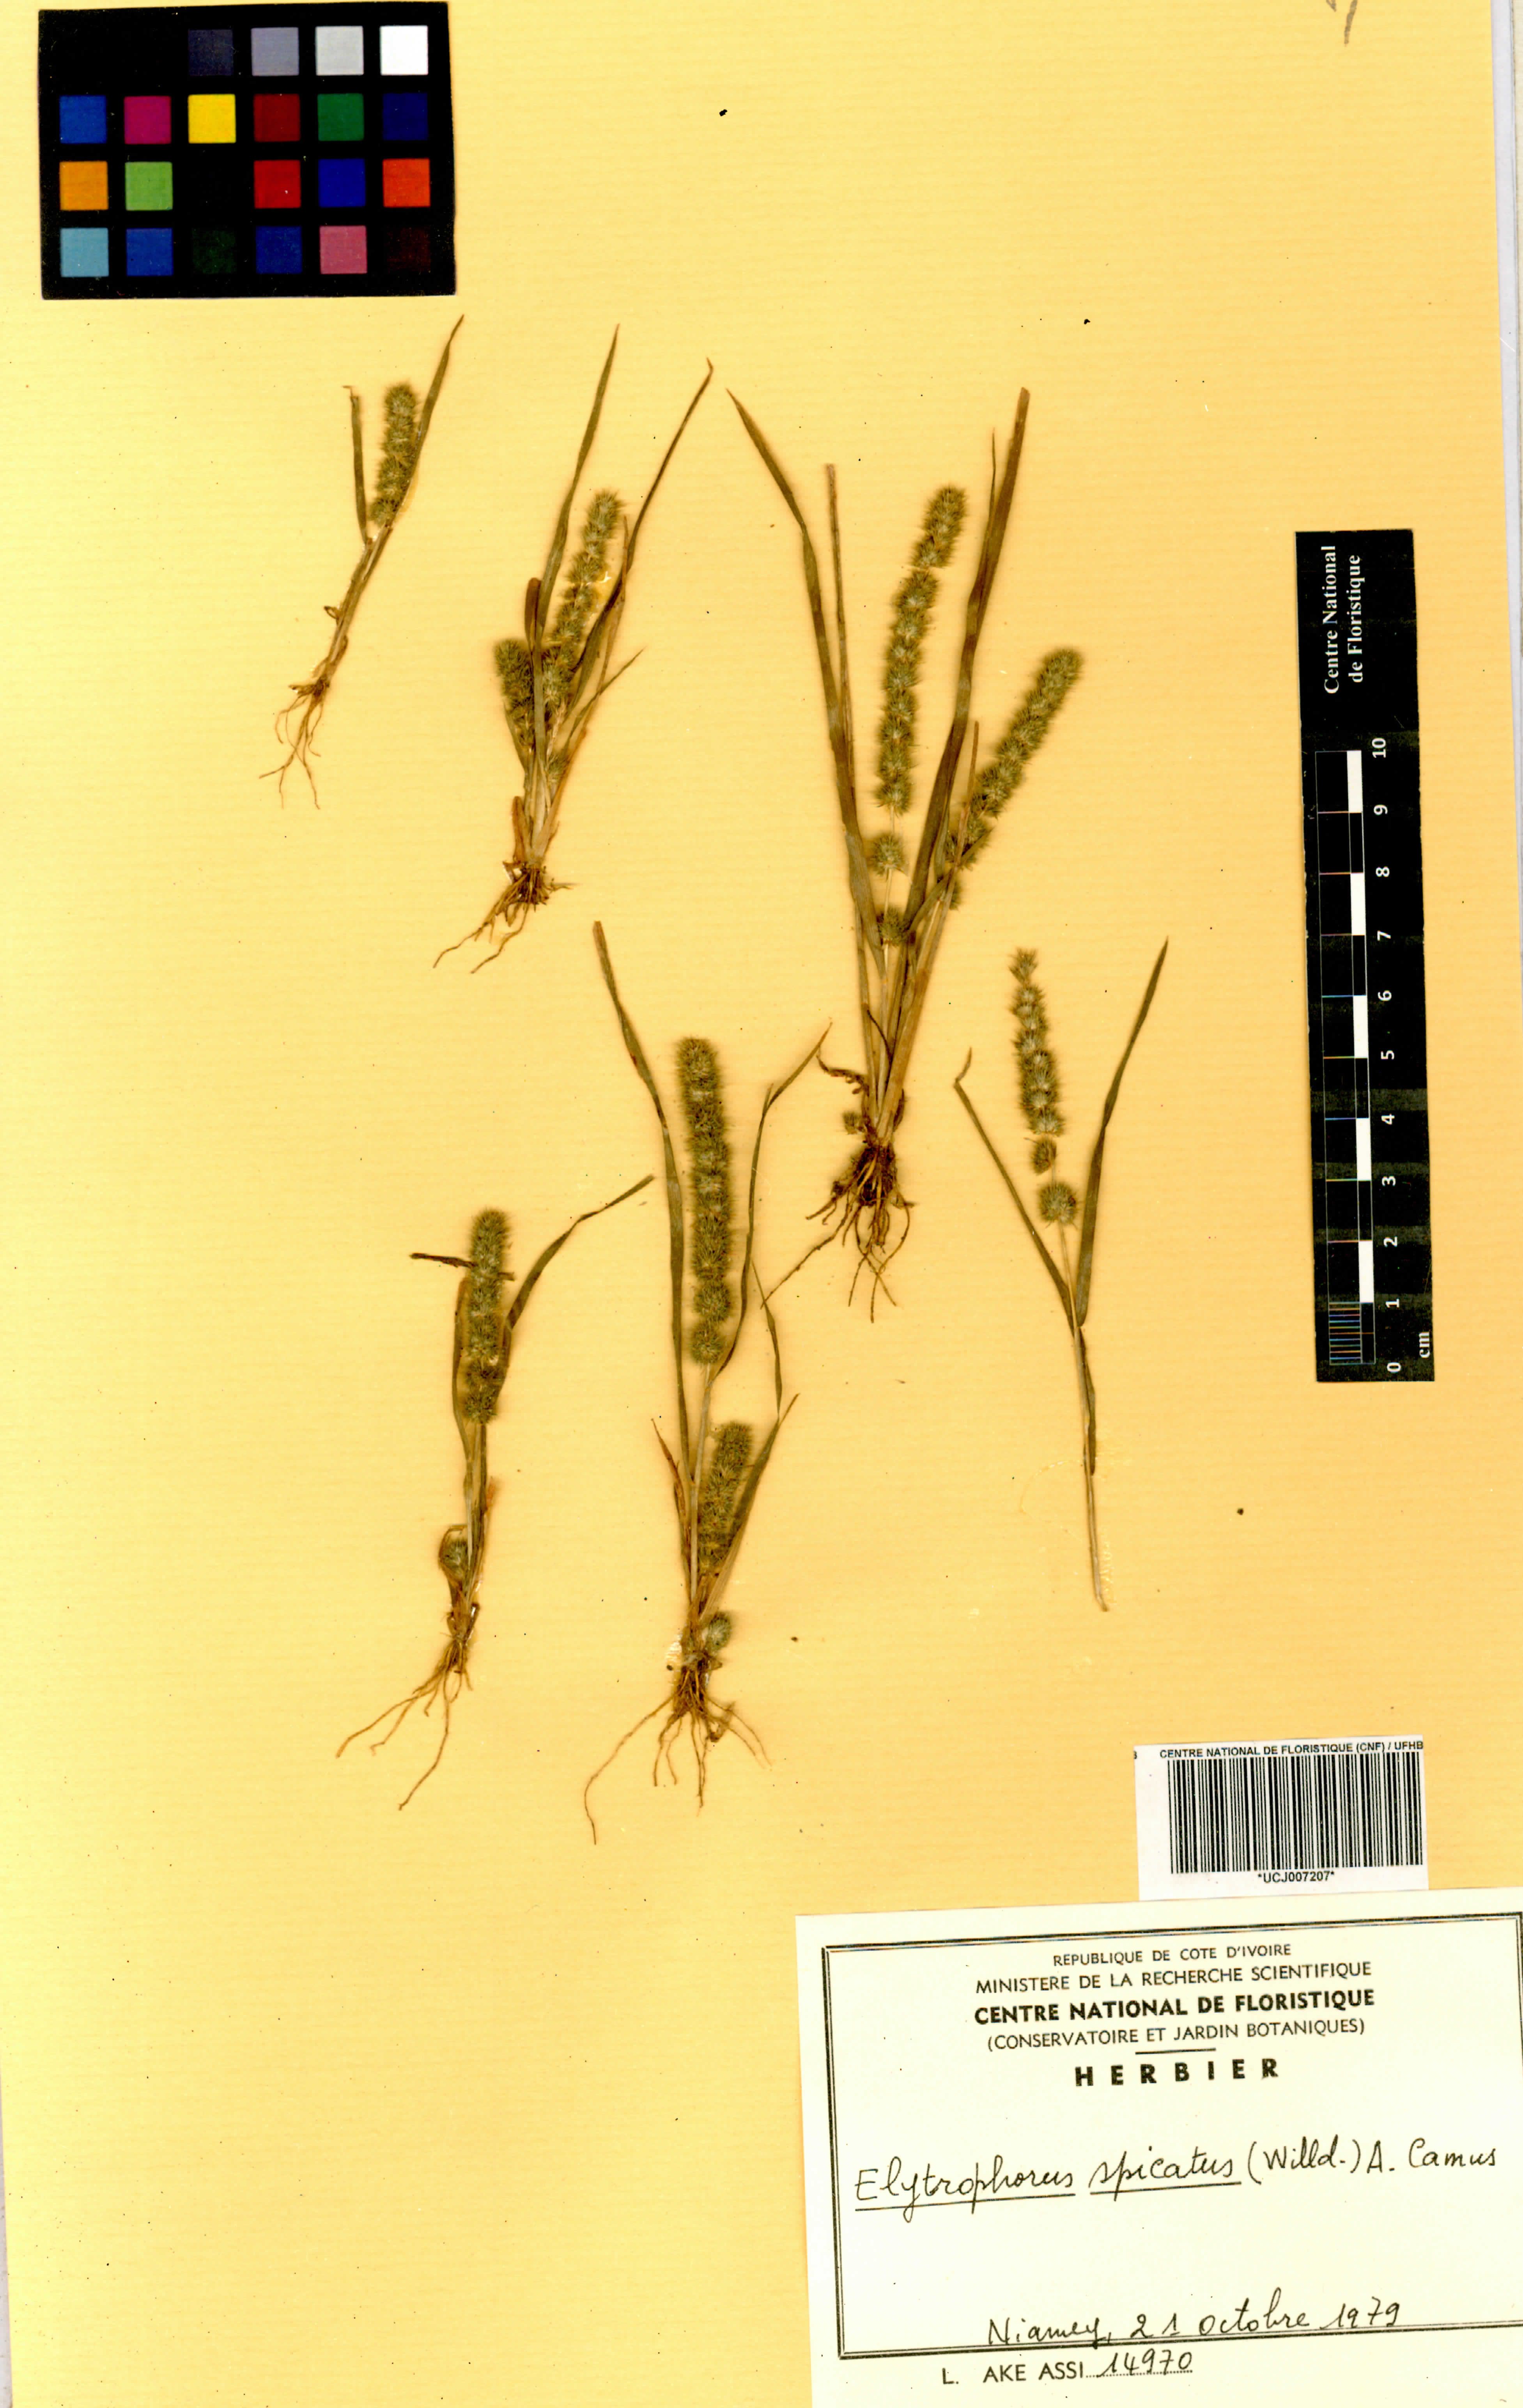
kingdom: Plantae
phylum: Tracheophyta
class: Liliopsida
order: Poales
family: Poaceae
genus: Elytrophorus
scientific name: Elytrophorus spicatus
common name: Spike grass
